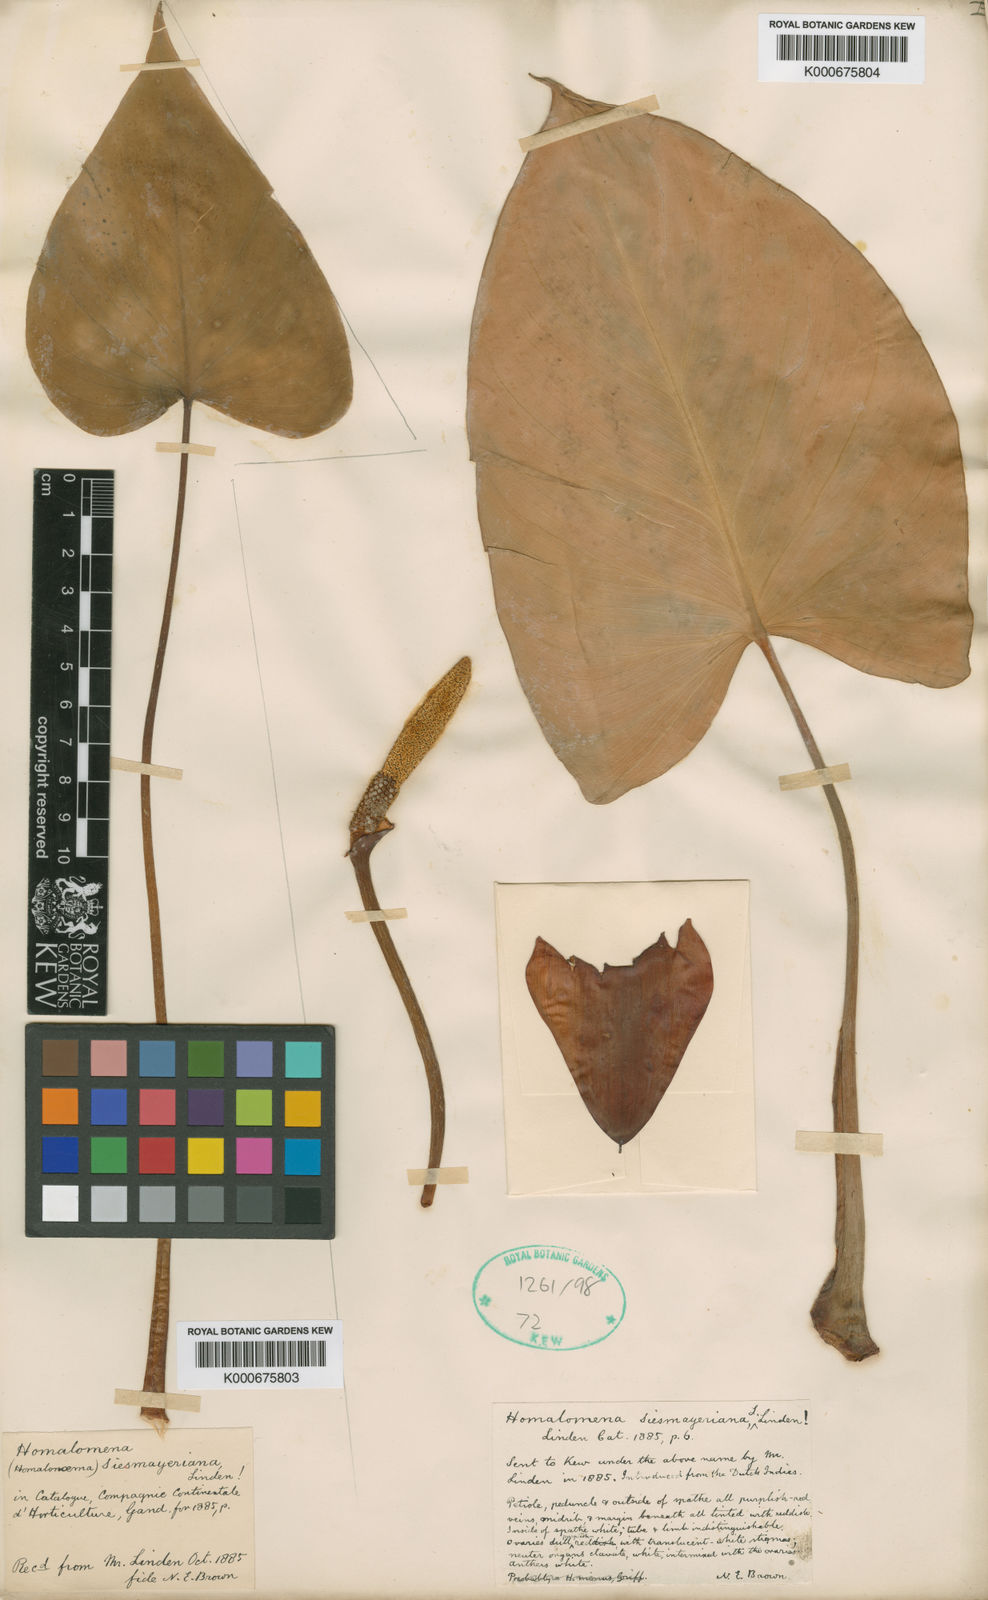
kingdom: Plantae
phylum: Tracheophyta
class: Liliopsida
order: Alismatales
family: Araceae
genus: Homalomena
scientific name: Homalomena
